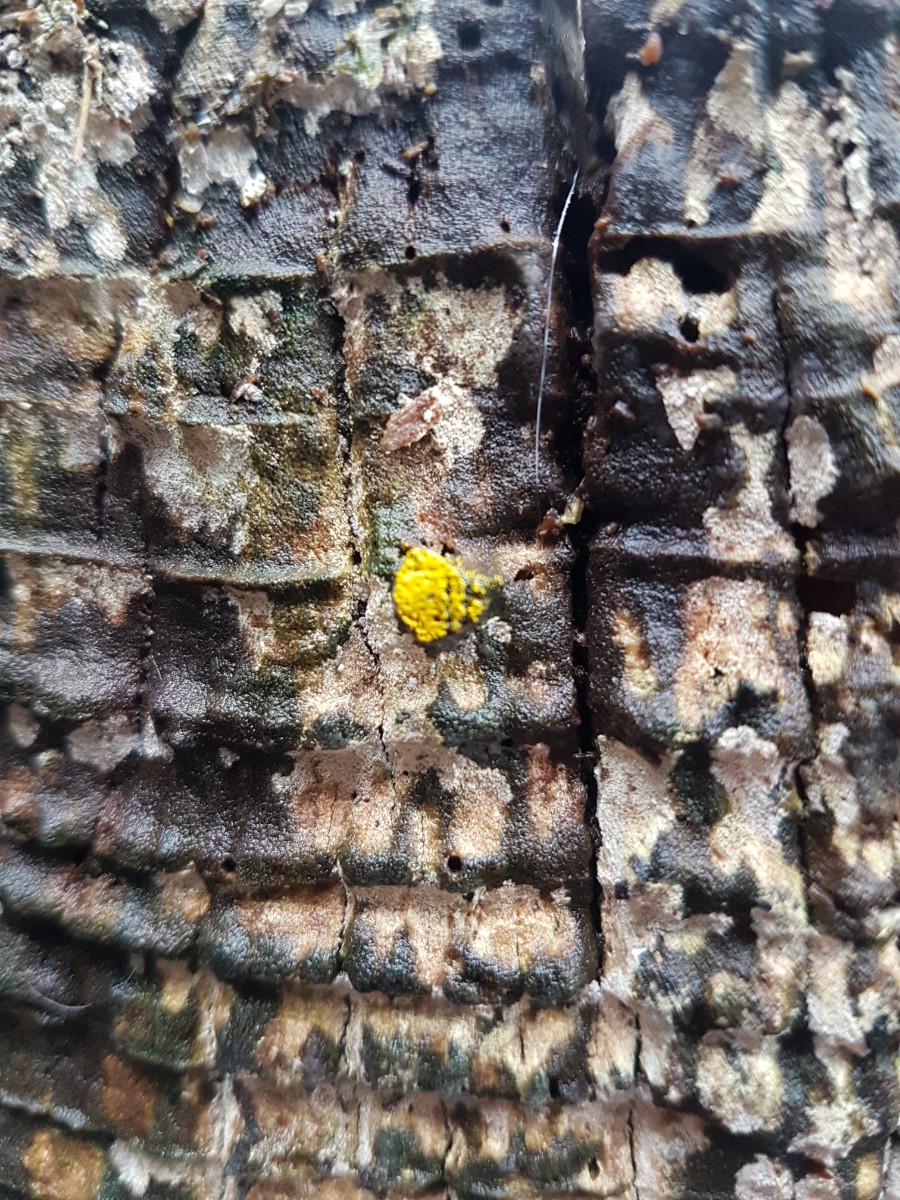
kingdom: Protozoa
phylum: Mycetozoa
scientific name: Mycetozoa
